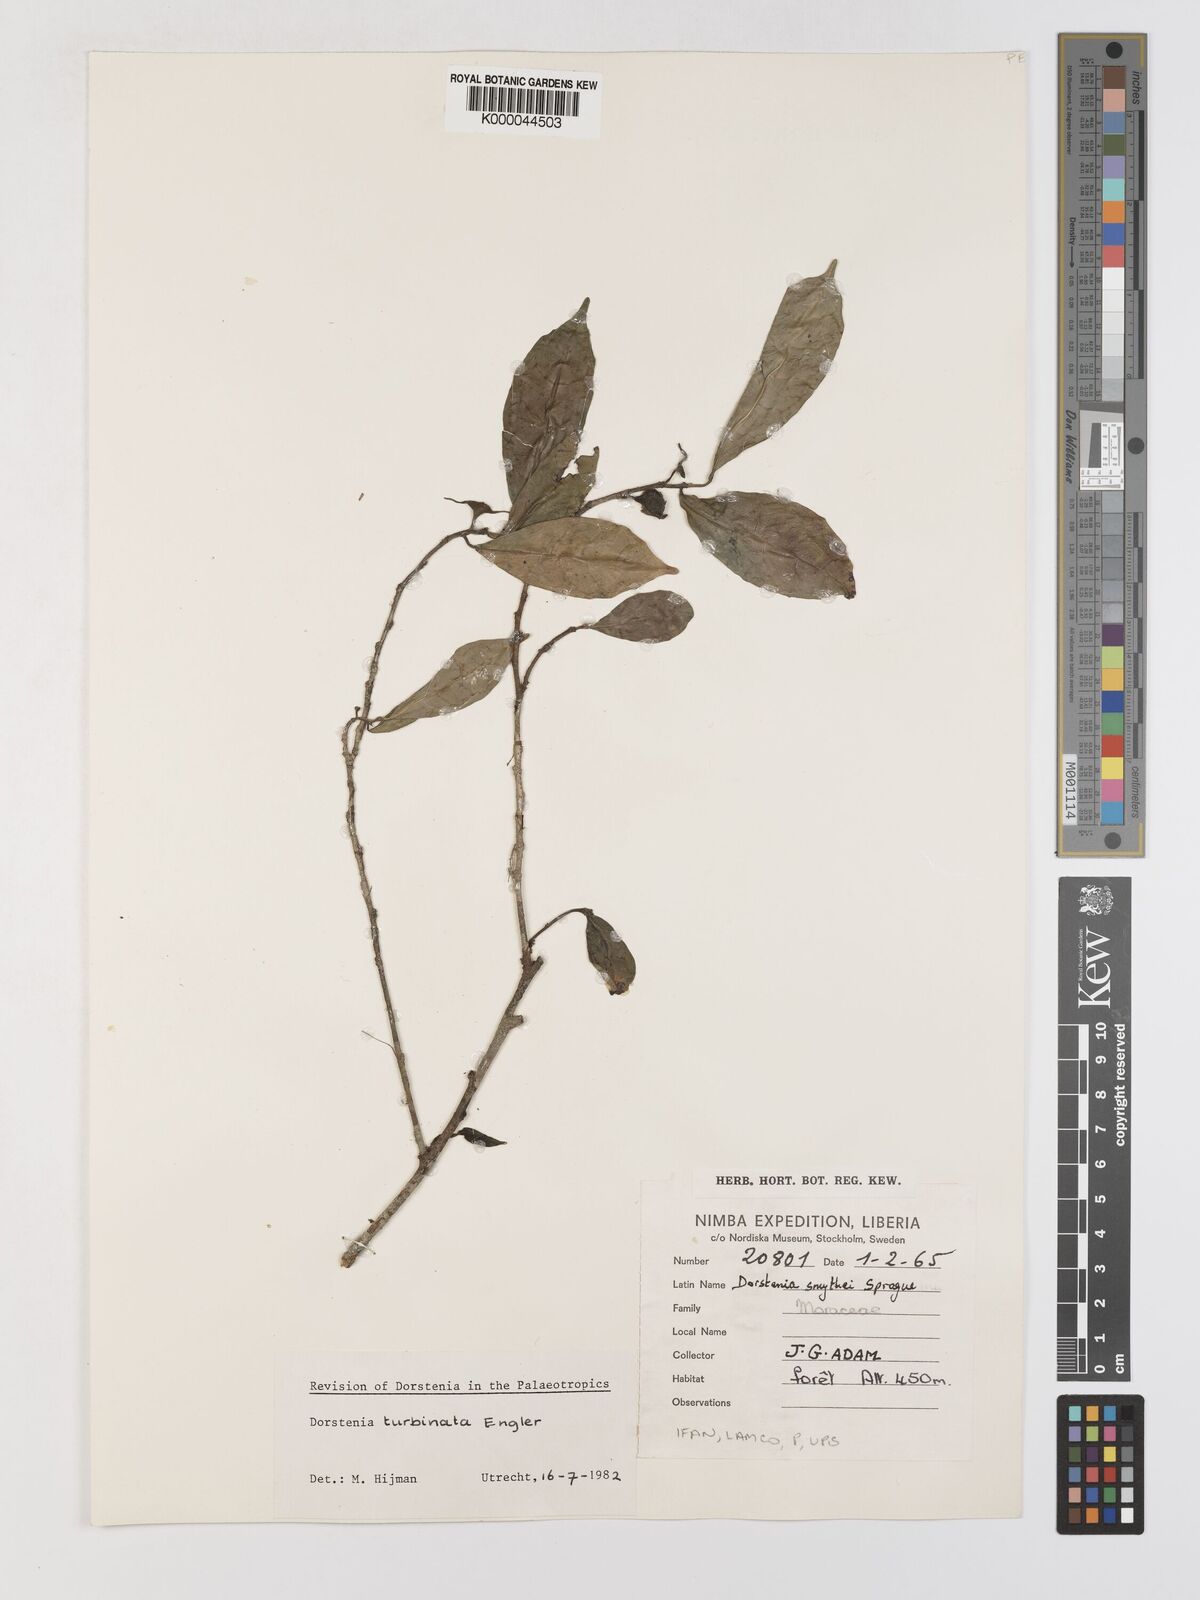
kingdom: Plantae
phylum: Tracheophyta
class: Magnoliopsida
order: Rosales
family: Moraceae
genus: Hijmania
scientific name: Hijmania turbinata
